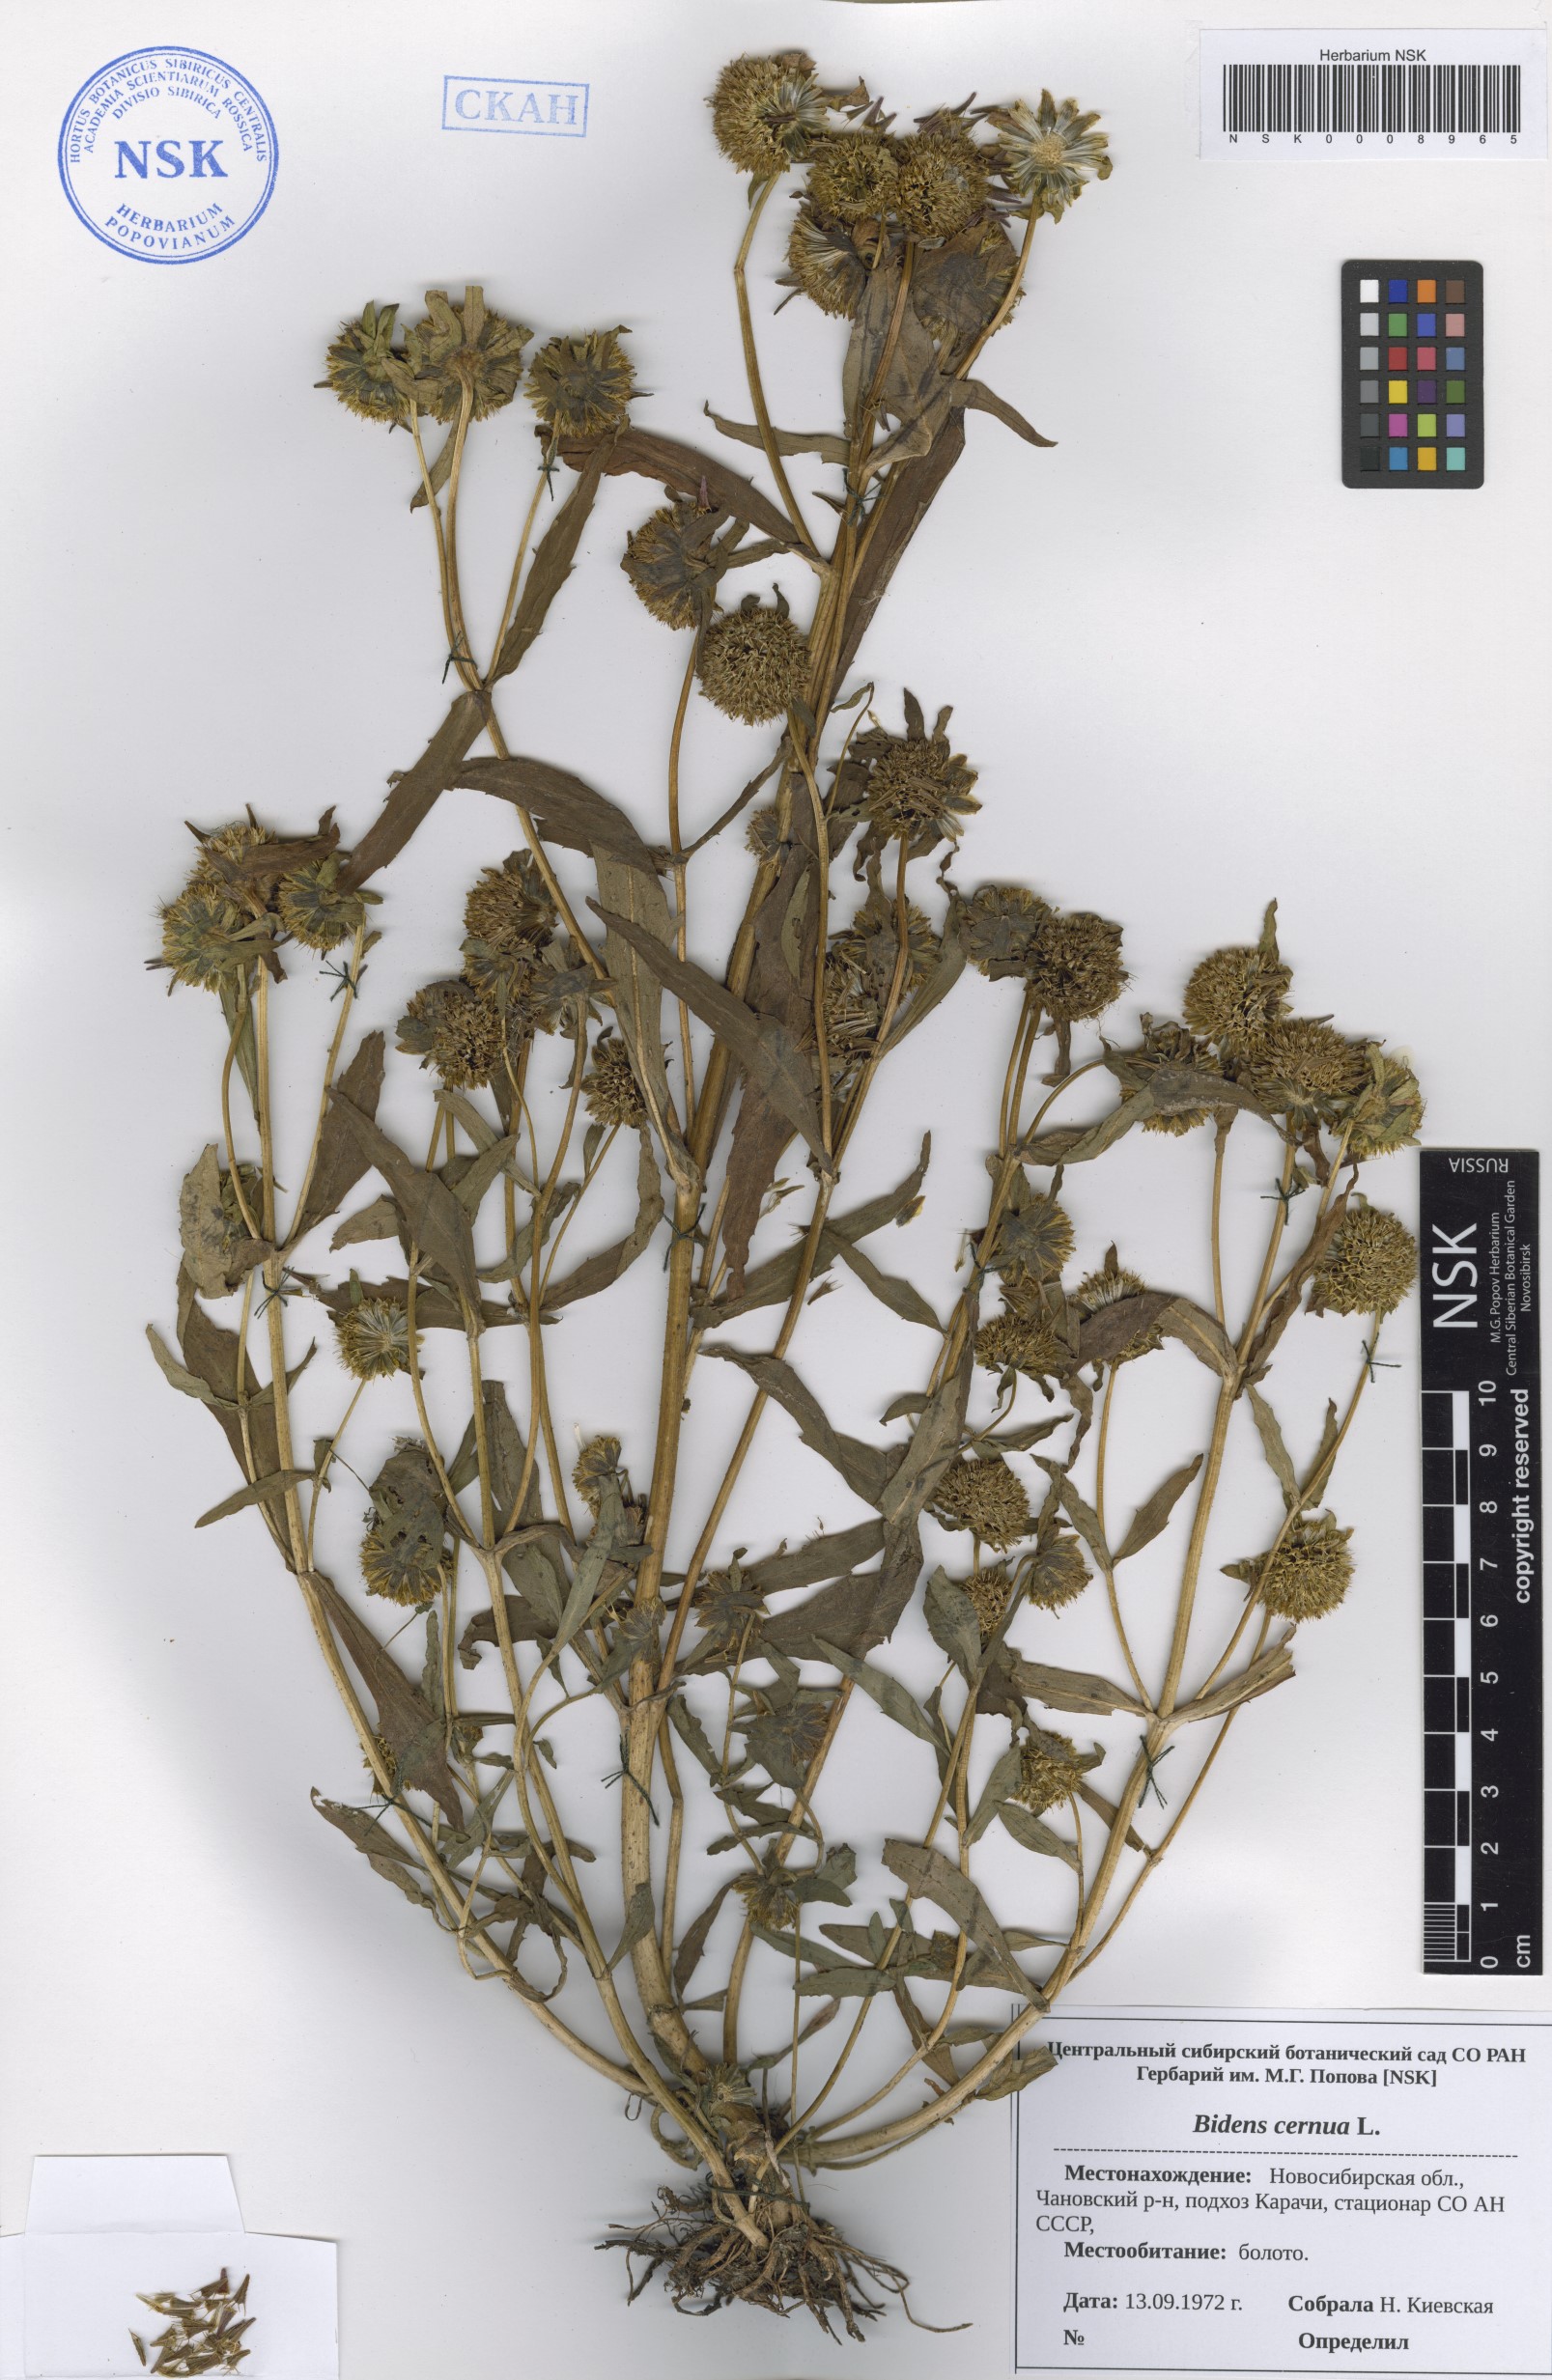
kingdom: Plantae
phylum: Tracheophyta
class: Magnoliopsida
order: Asterales
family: Asteraceae
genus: Bidens
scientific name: Bidens cernua
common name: Nodding bur-marigold
